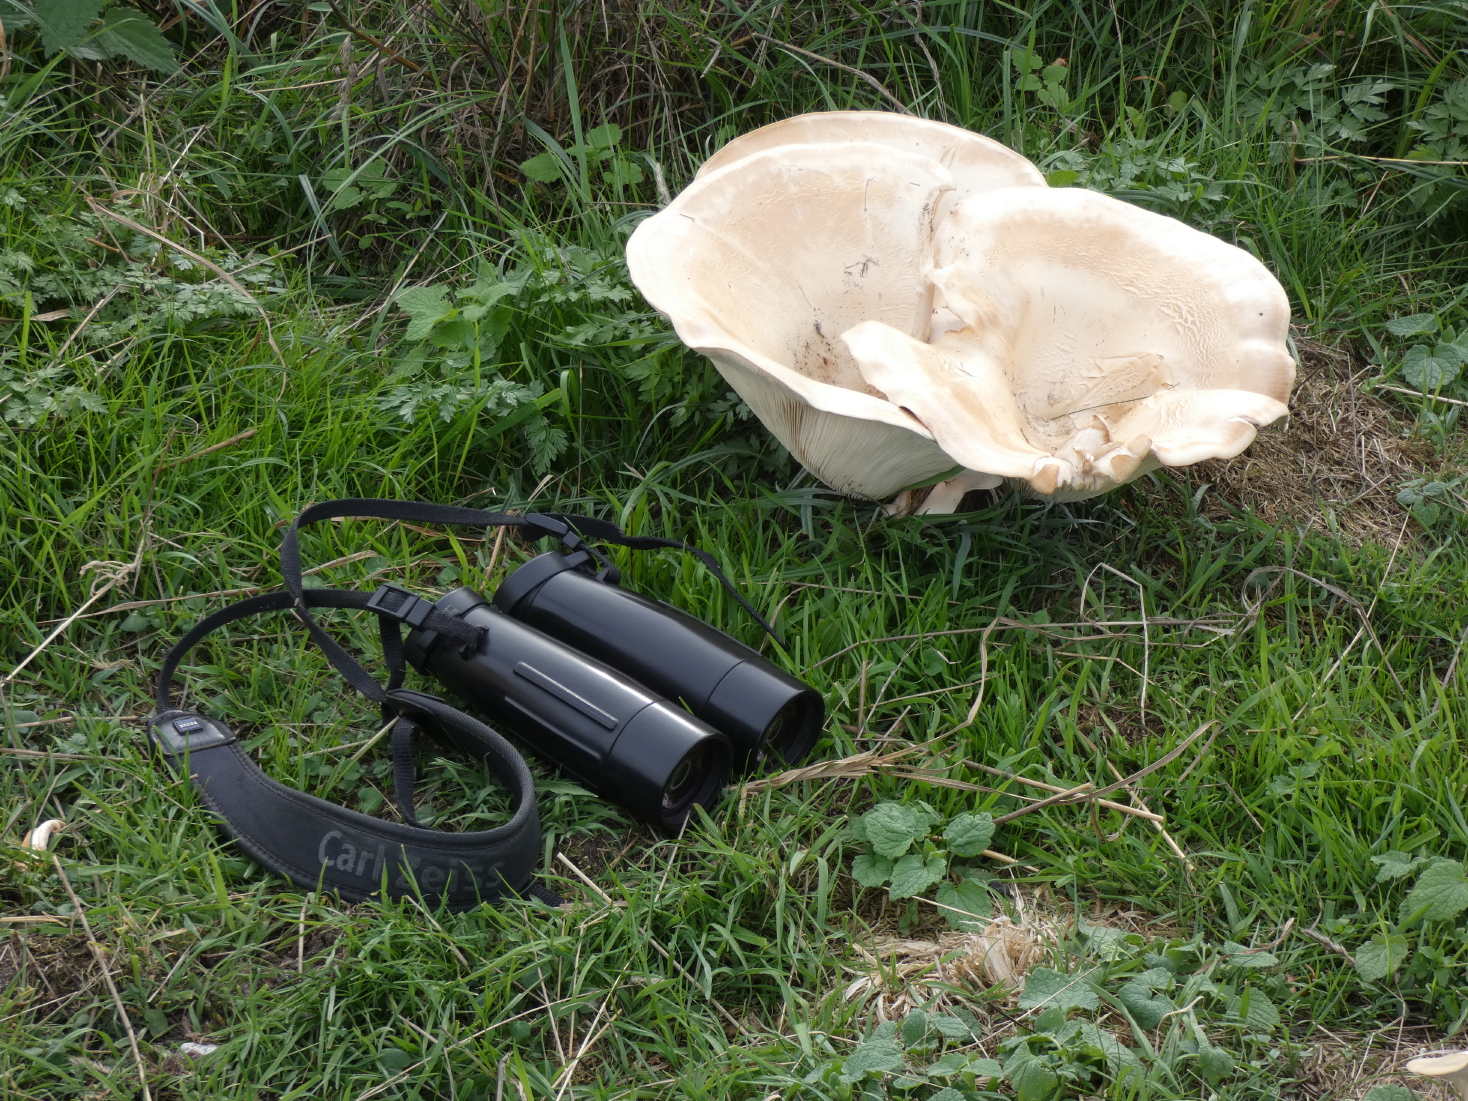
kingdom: Fungi
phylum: Basidiomycota
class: Agaricomycetes
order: Agaricales
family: Tricholomataceae
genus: Aspropaxillus
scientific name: Aspropaxillus giganteus
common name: kæmpe-tragtridderhat
